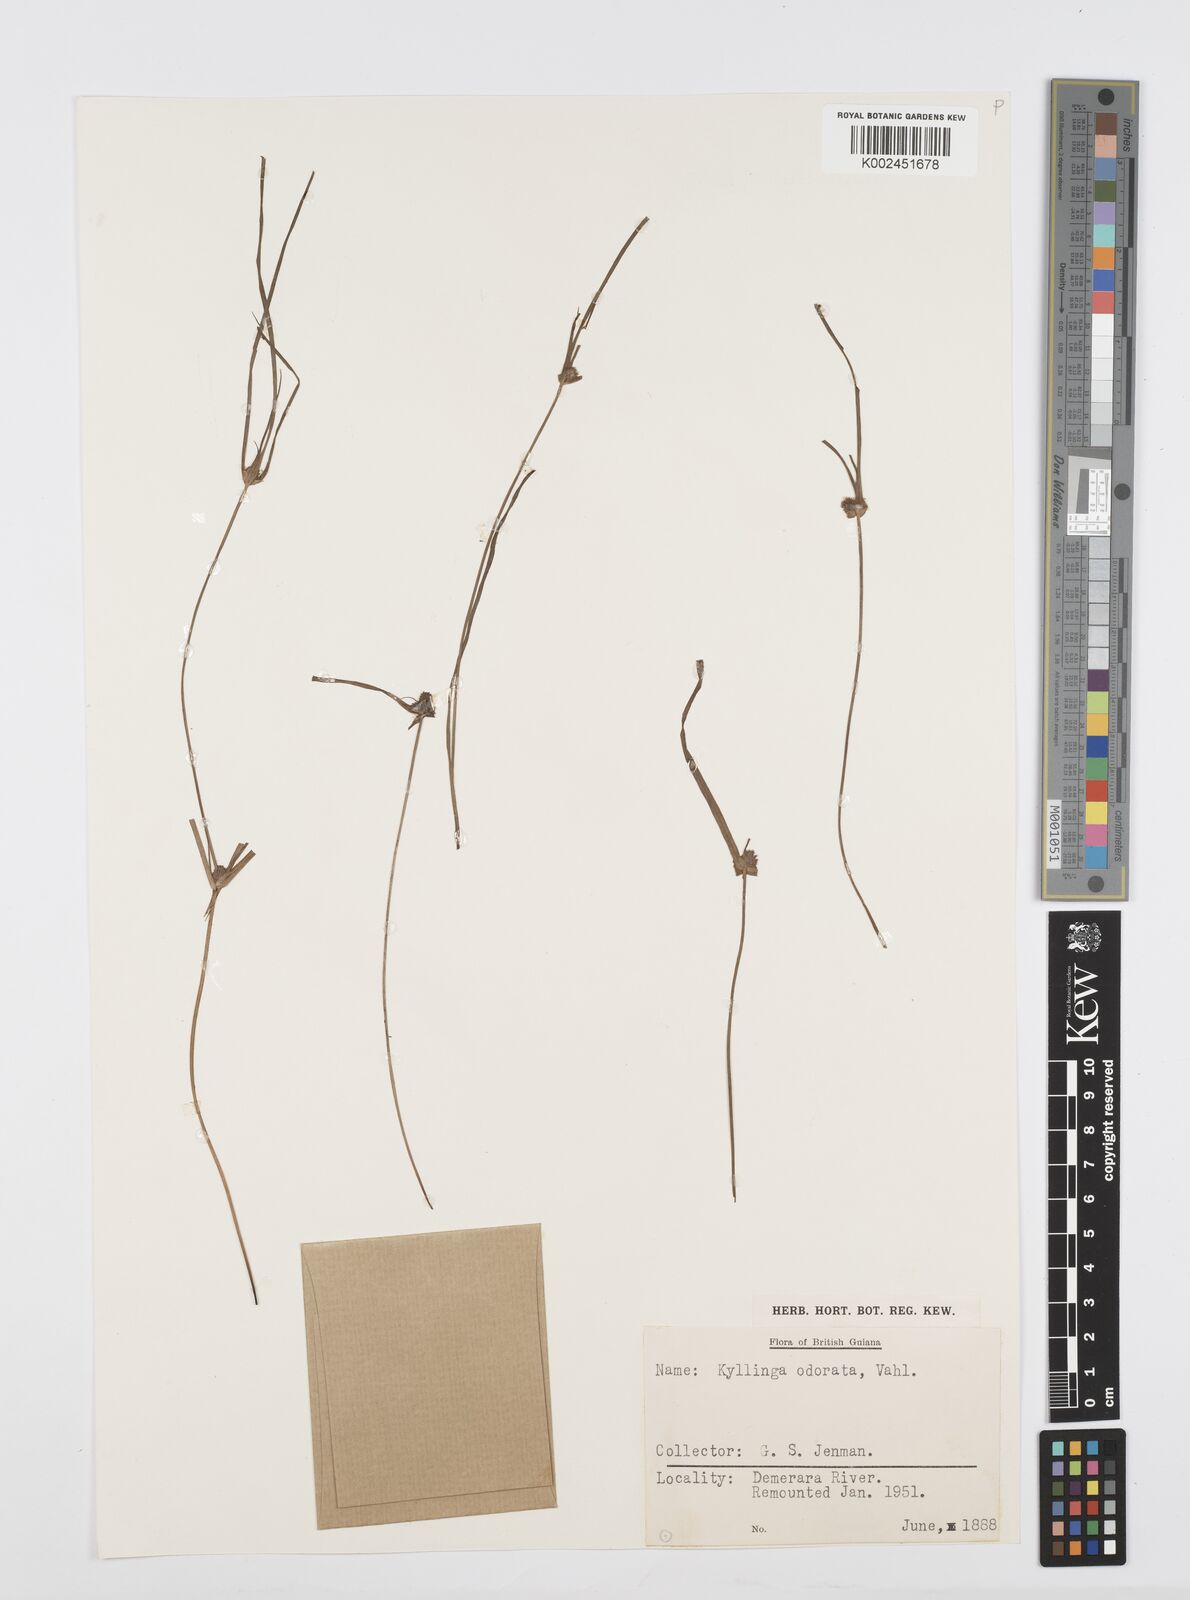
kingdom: Plantae
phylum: Tracheophyta
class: Liliopsida
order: Poales
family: Cyperaceae
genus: Cyperus
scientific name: Cyperus
